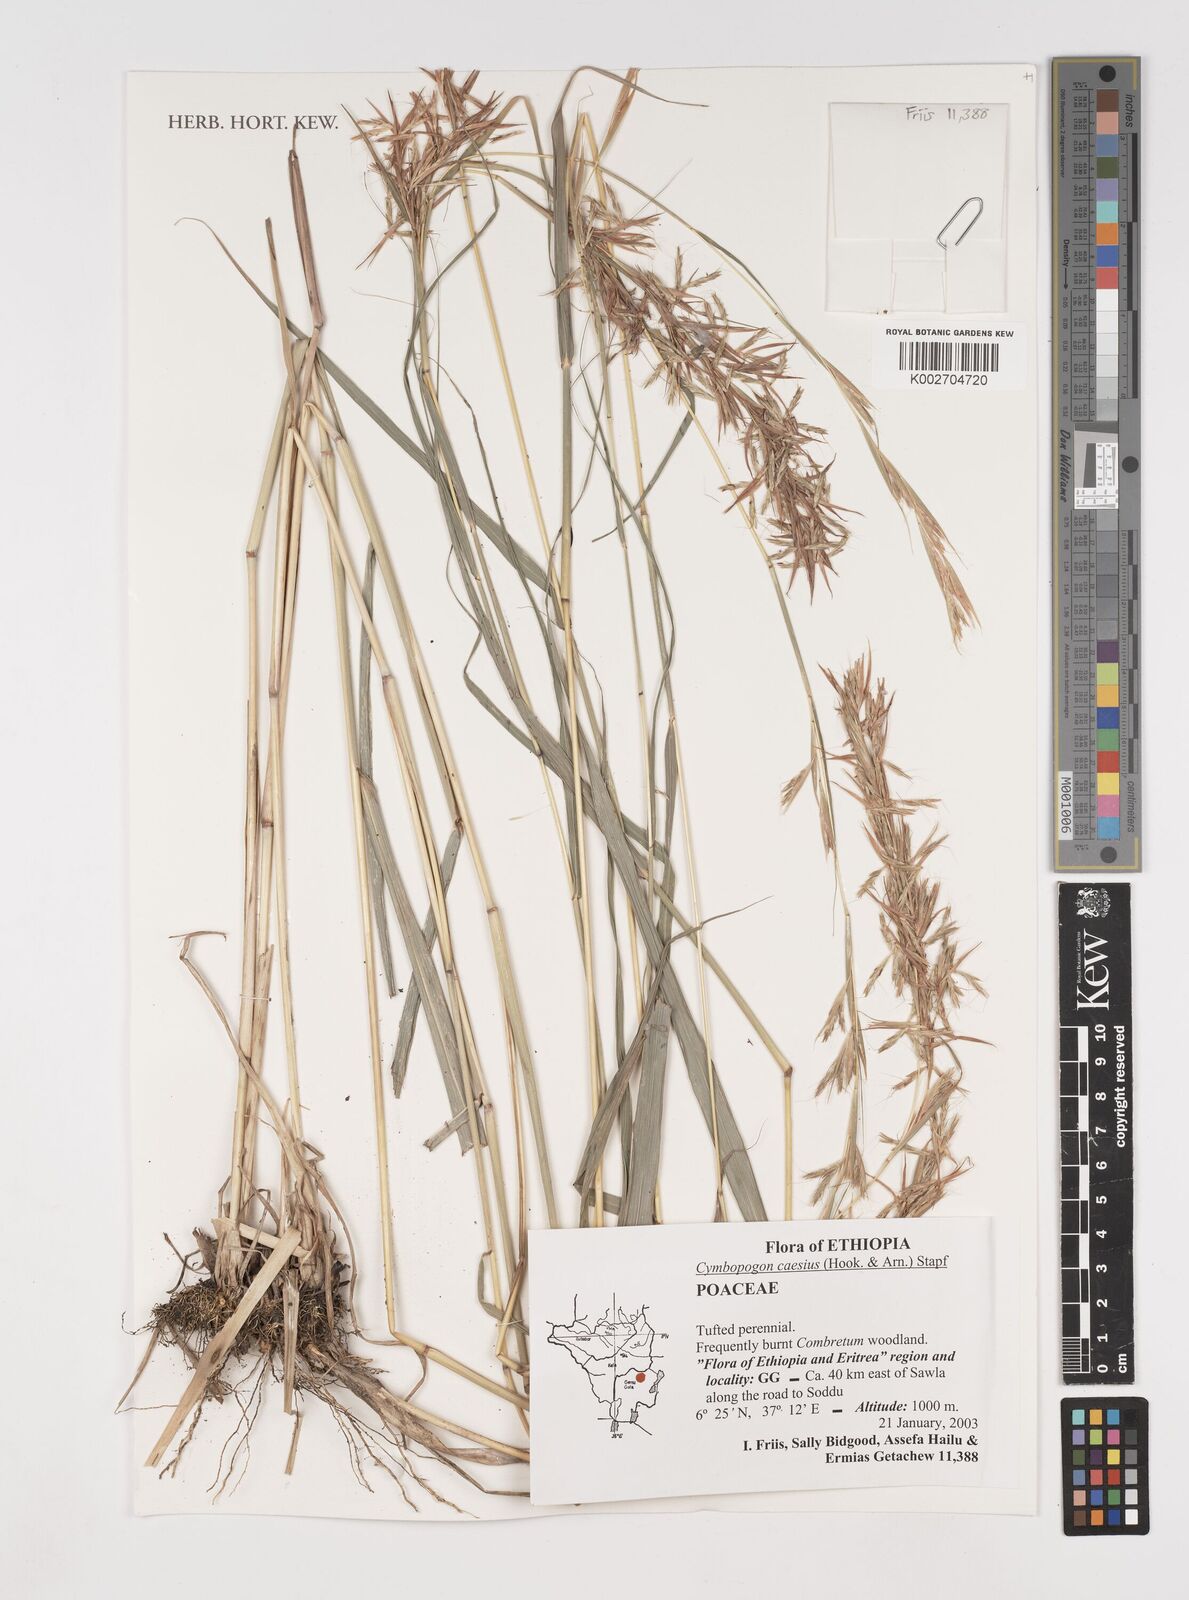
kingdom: Plantae
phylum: Tracheophyta
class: Liliopsida
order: Poales
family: Poaceae
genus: Cymbopogon
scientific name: Cymbopogon caesius
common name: Kachi grass
